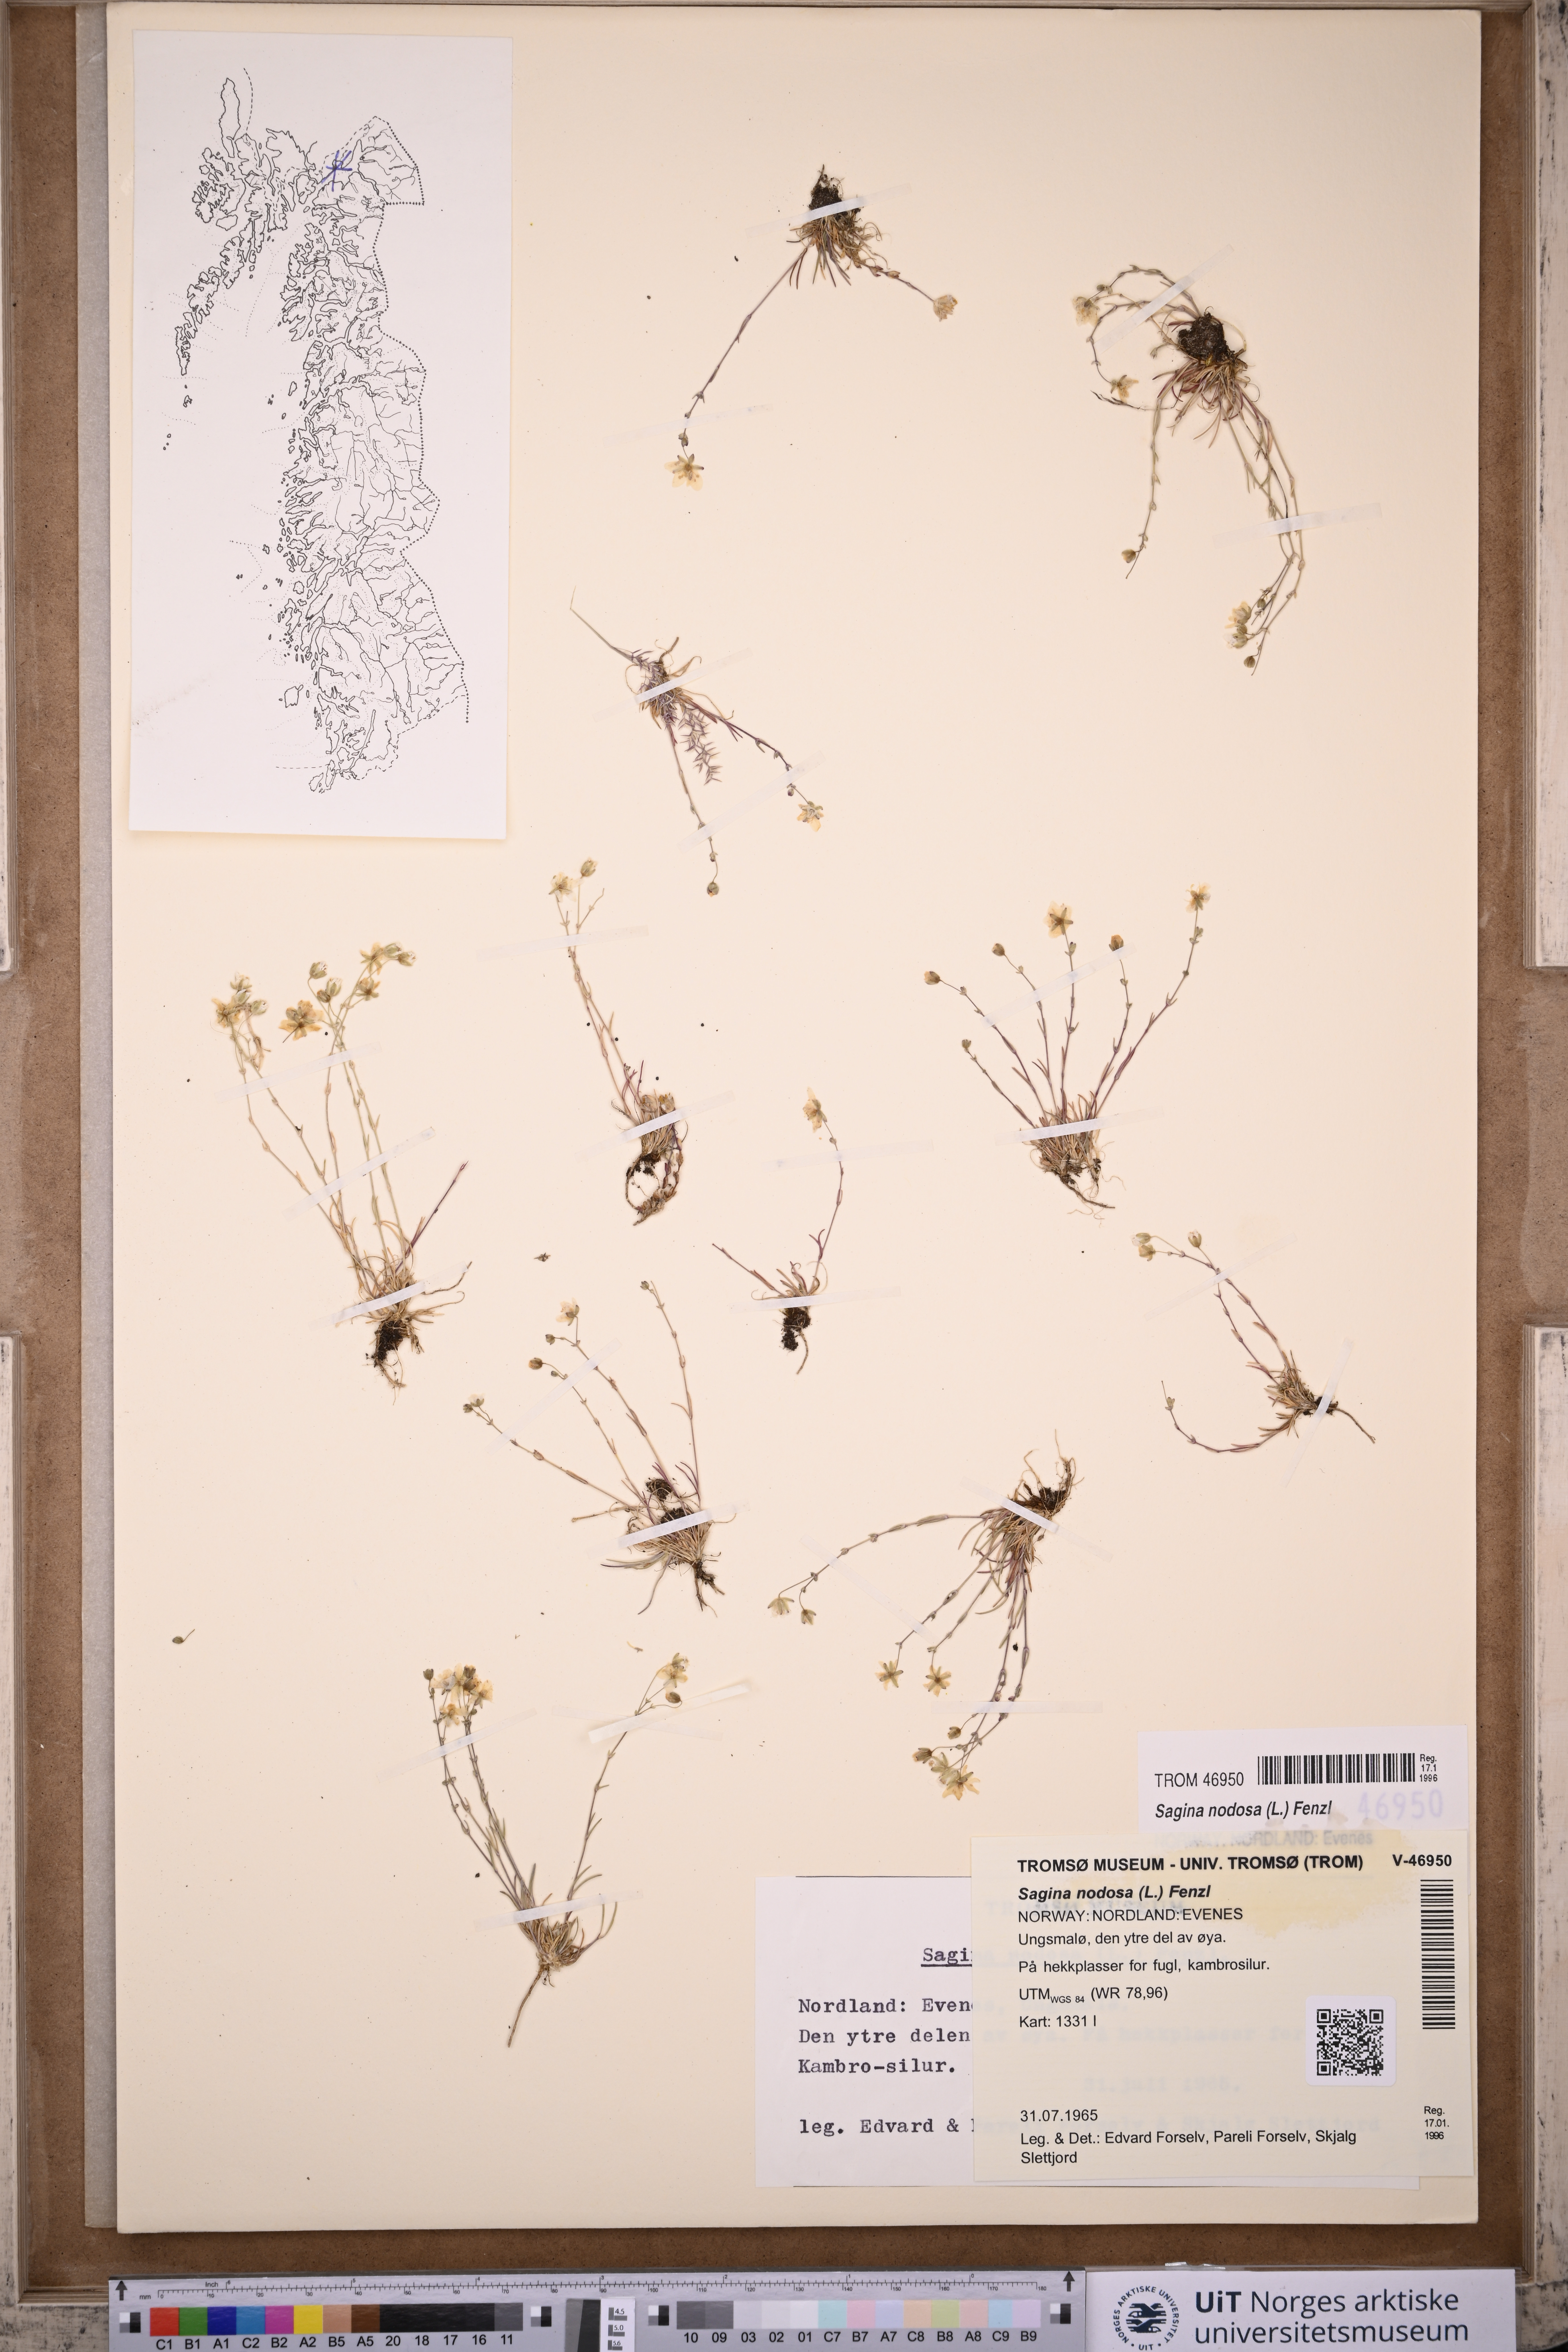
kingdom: Plantae
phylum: Tracheophyta
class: Magnoliopsida
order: Caryophyllales
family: Caryophyllaceae
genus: Sagina
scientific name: Sagina nodosa
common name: Knotted pearlwort
